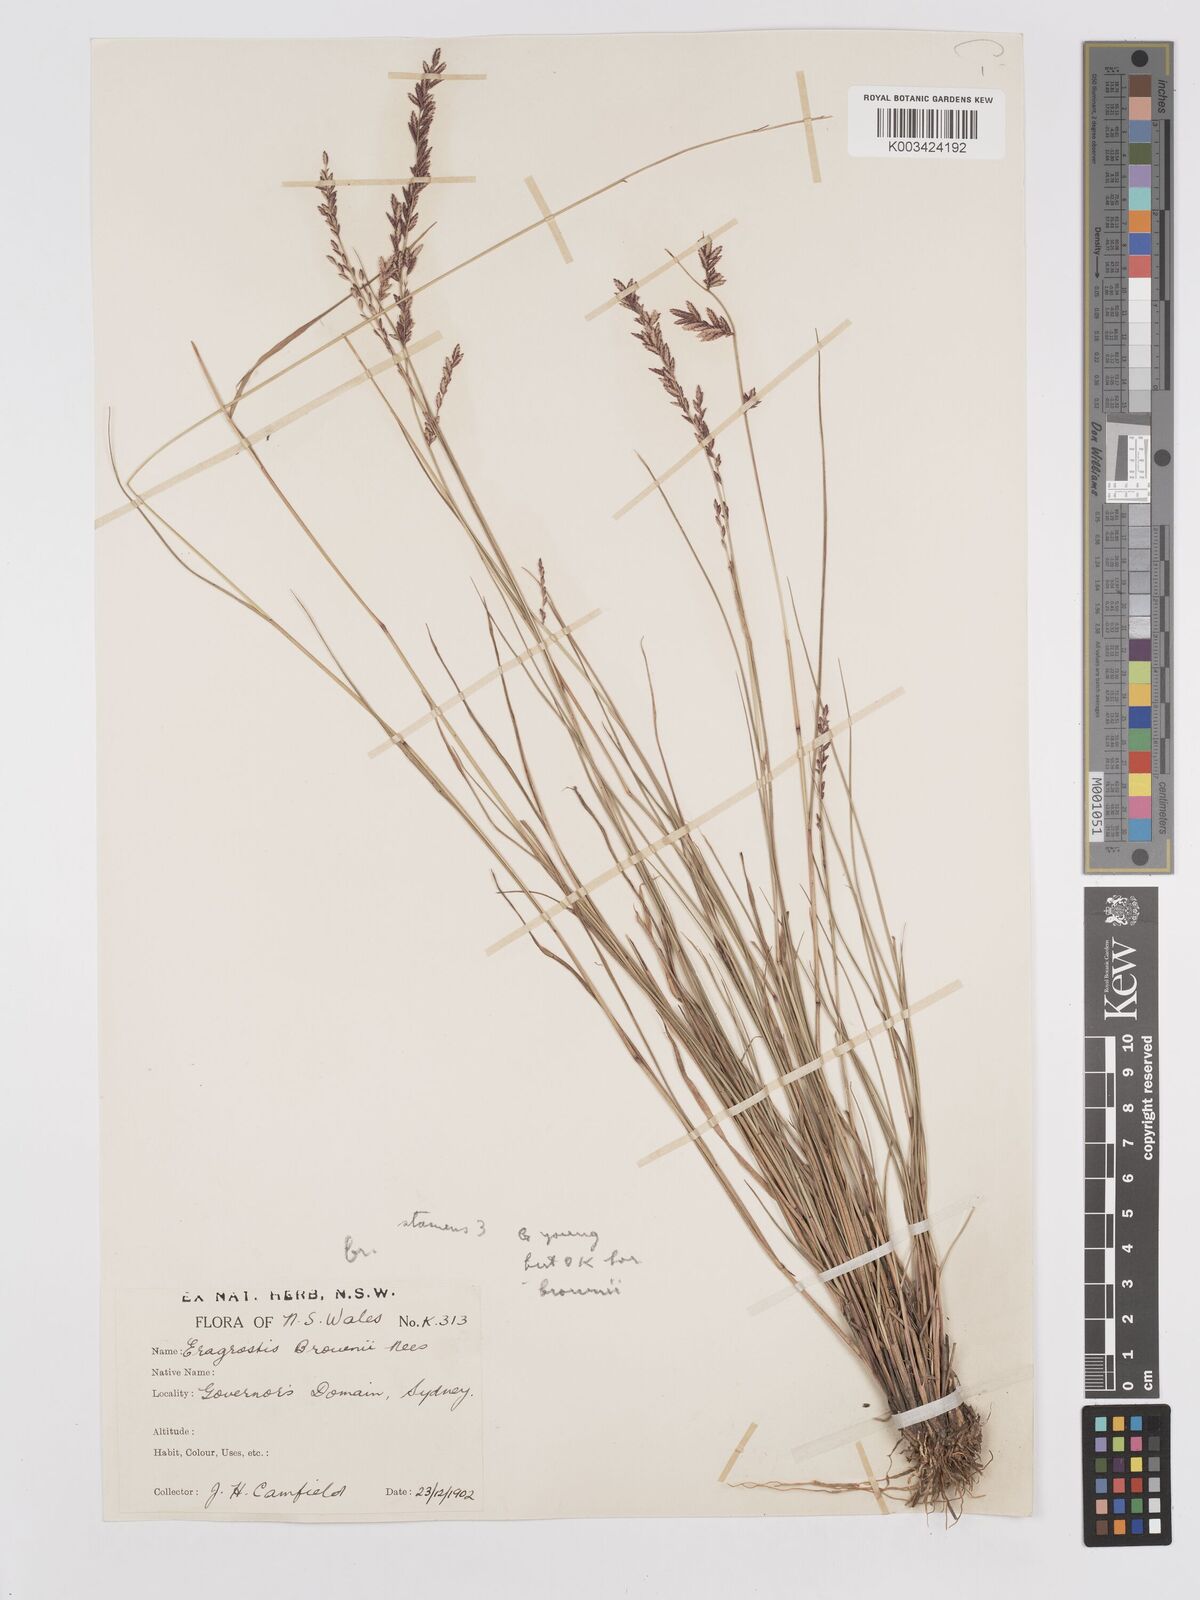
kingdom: Plantae
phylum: Tracheophyta
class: Liliopsida
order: Poales
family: Poaceae
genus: Eragrostis
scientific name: Eragrostis brownii
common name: Lovegrass
